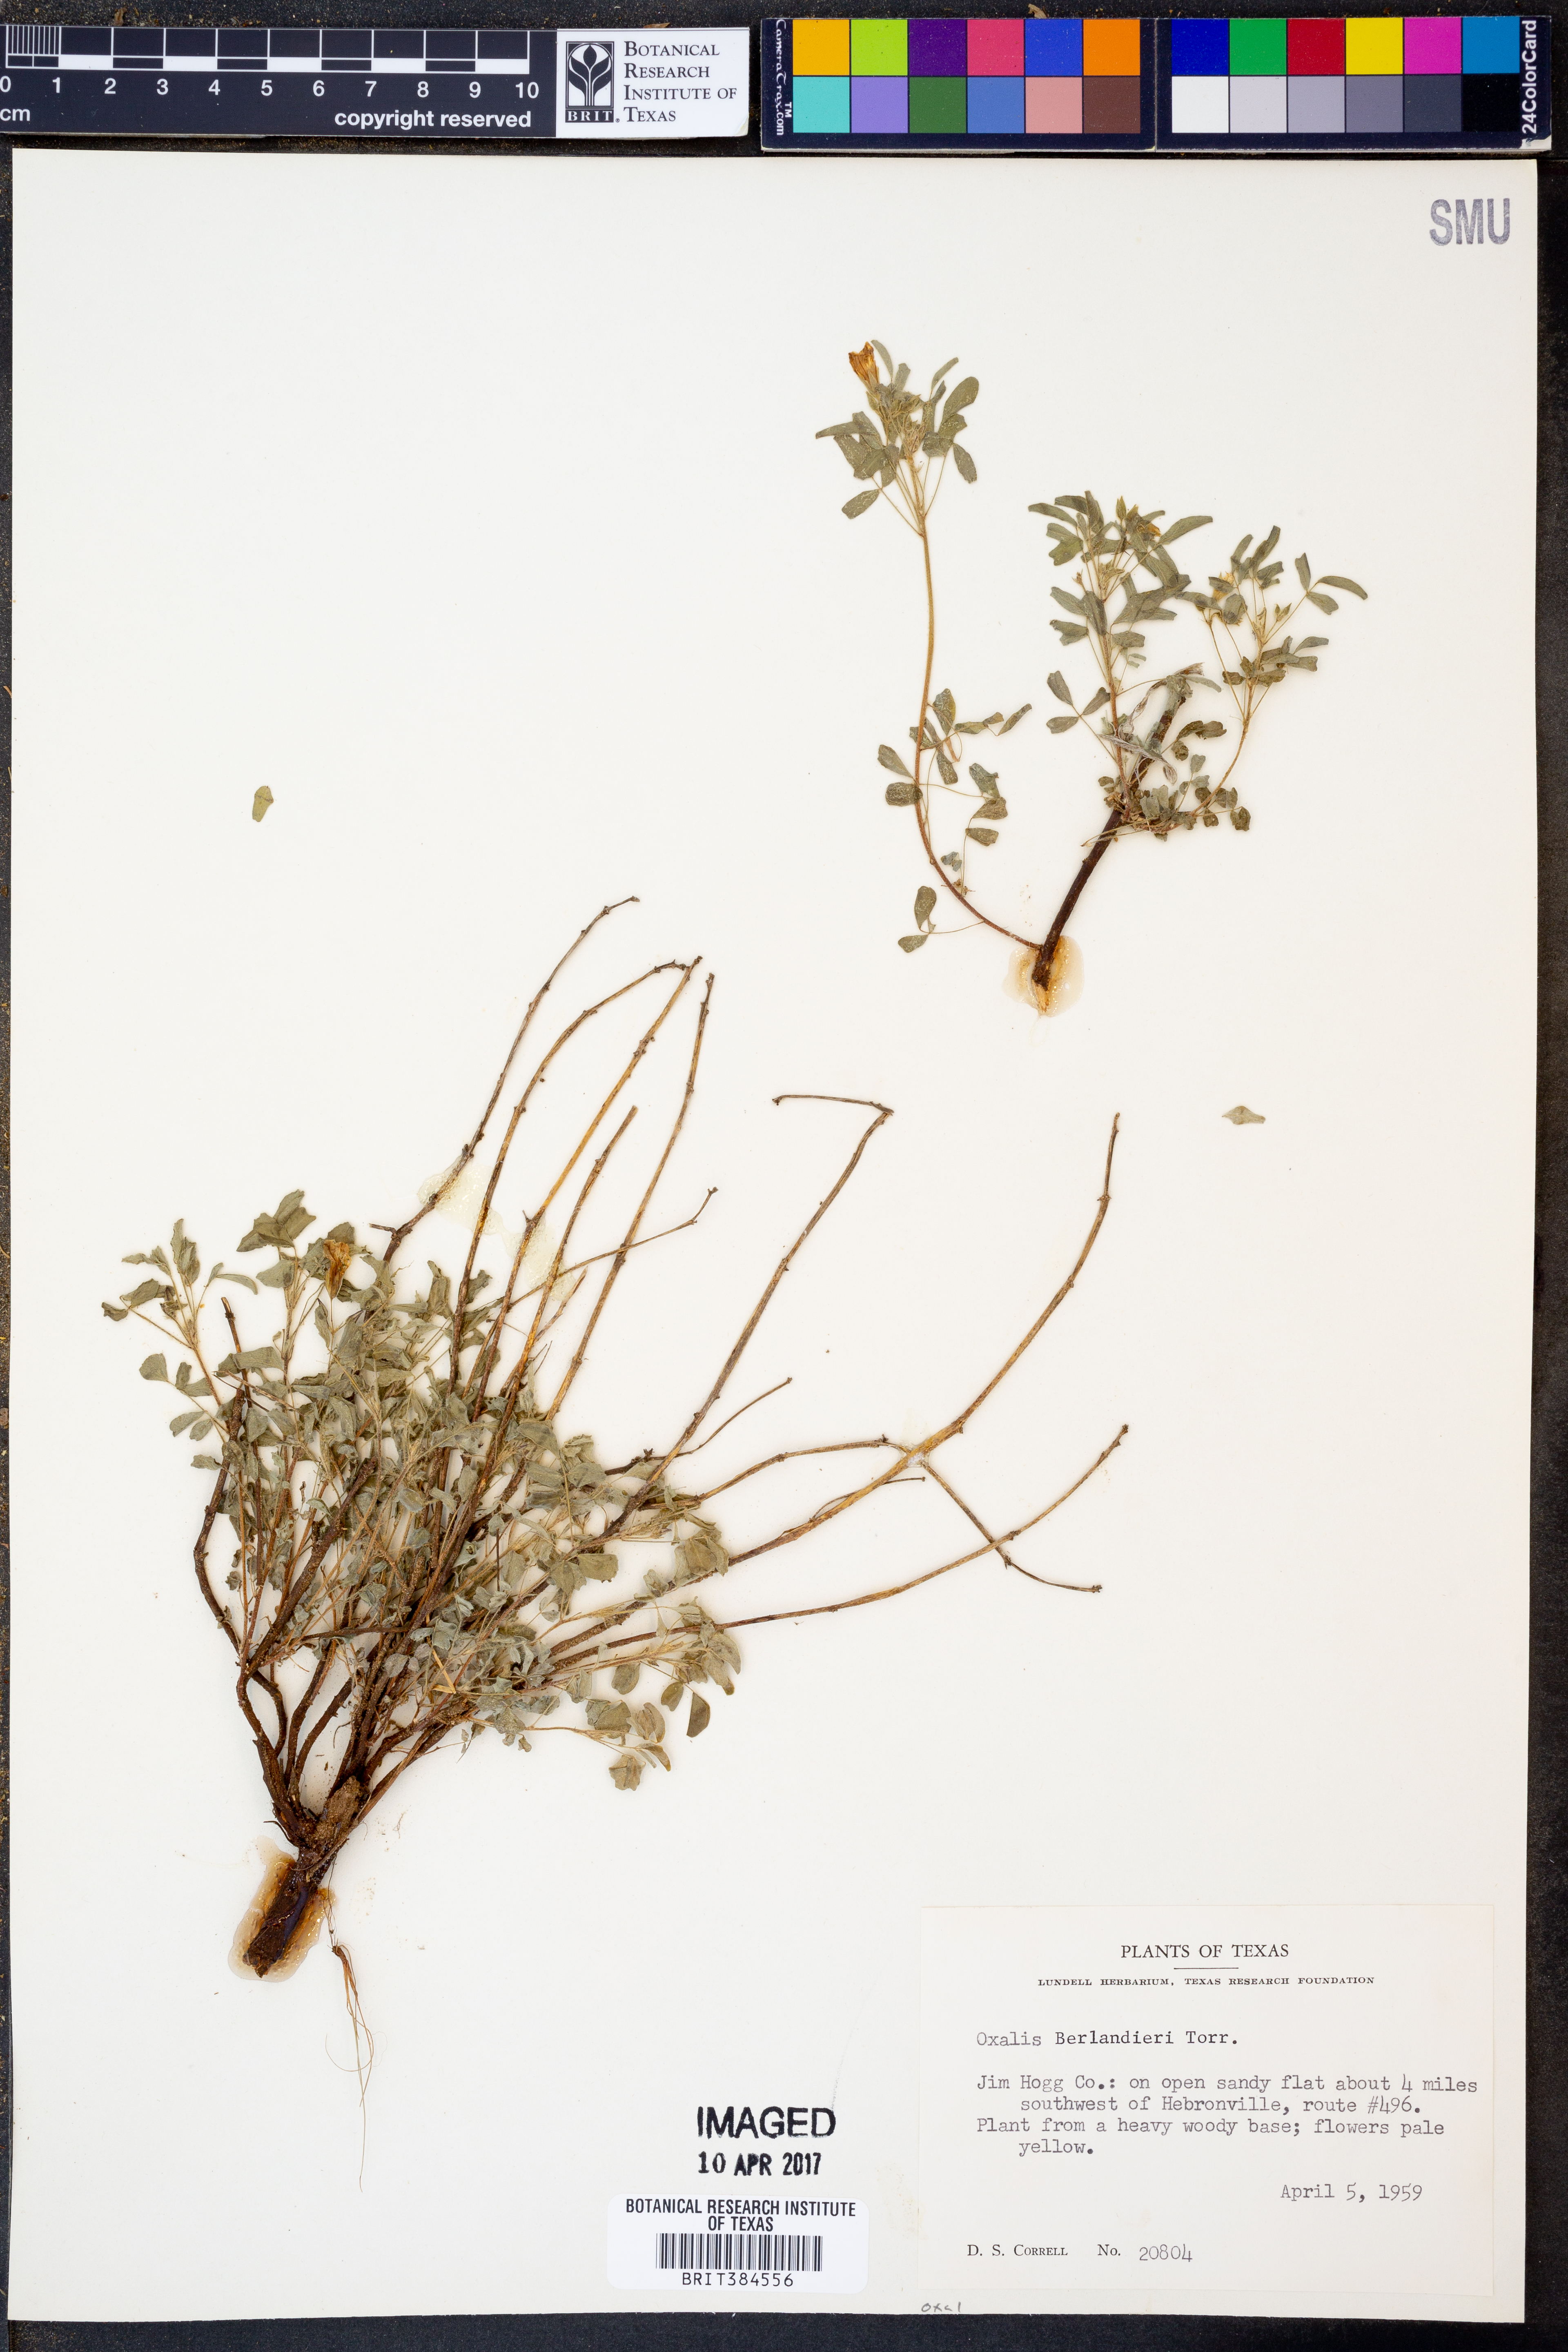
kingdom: Plantae
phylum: Tracheophyta
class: Magnoliopsida
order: Oxalidales
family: Oxalidaceae
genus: Oxalis
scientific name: Oxalis frutescens
